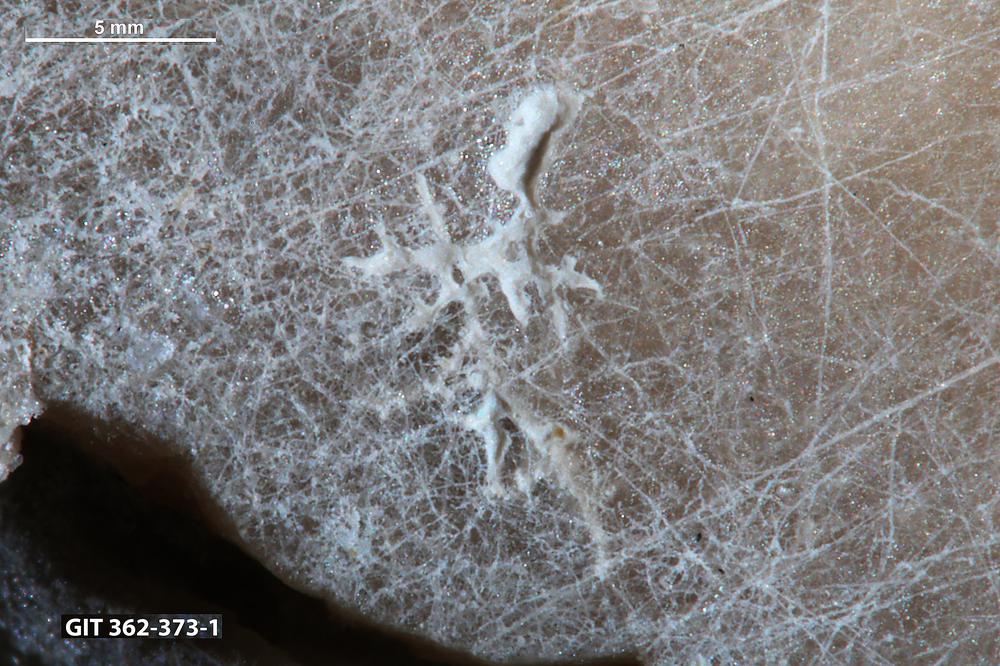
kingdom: Animalia
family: Dendrinidae
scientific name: Dendrinidae
